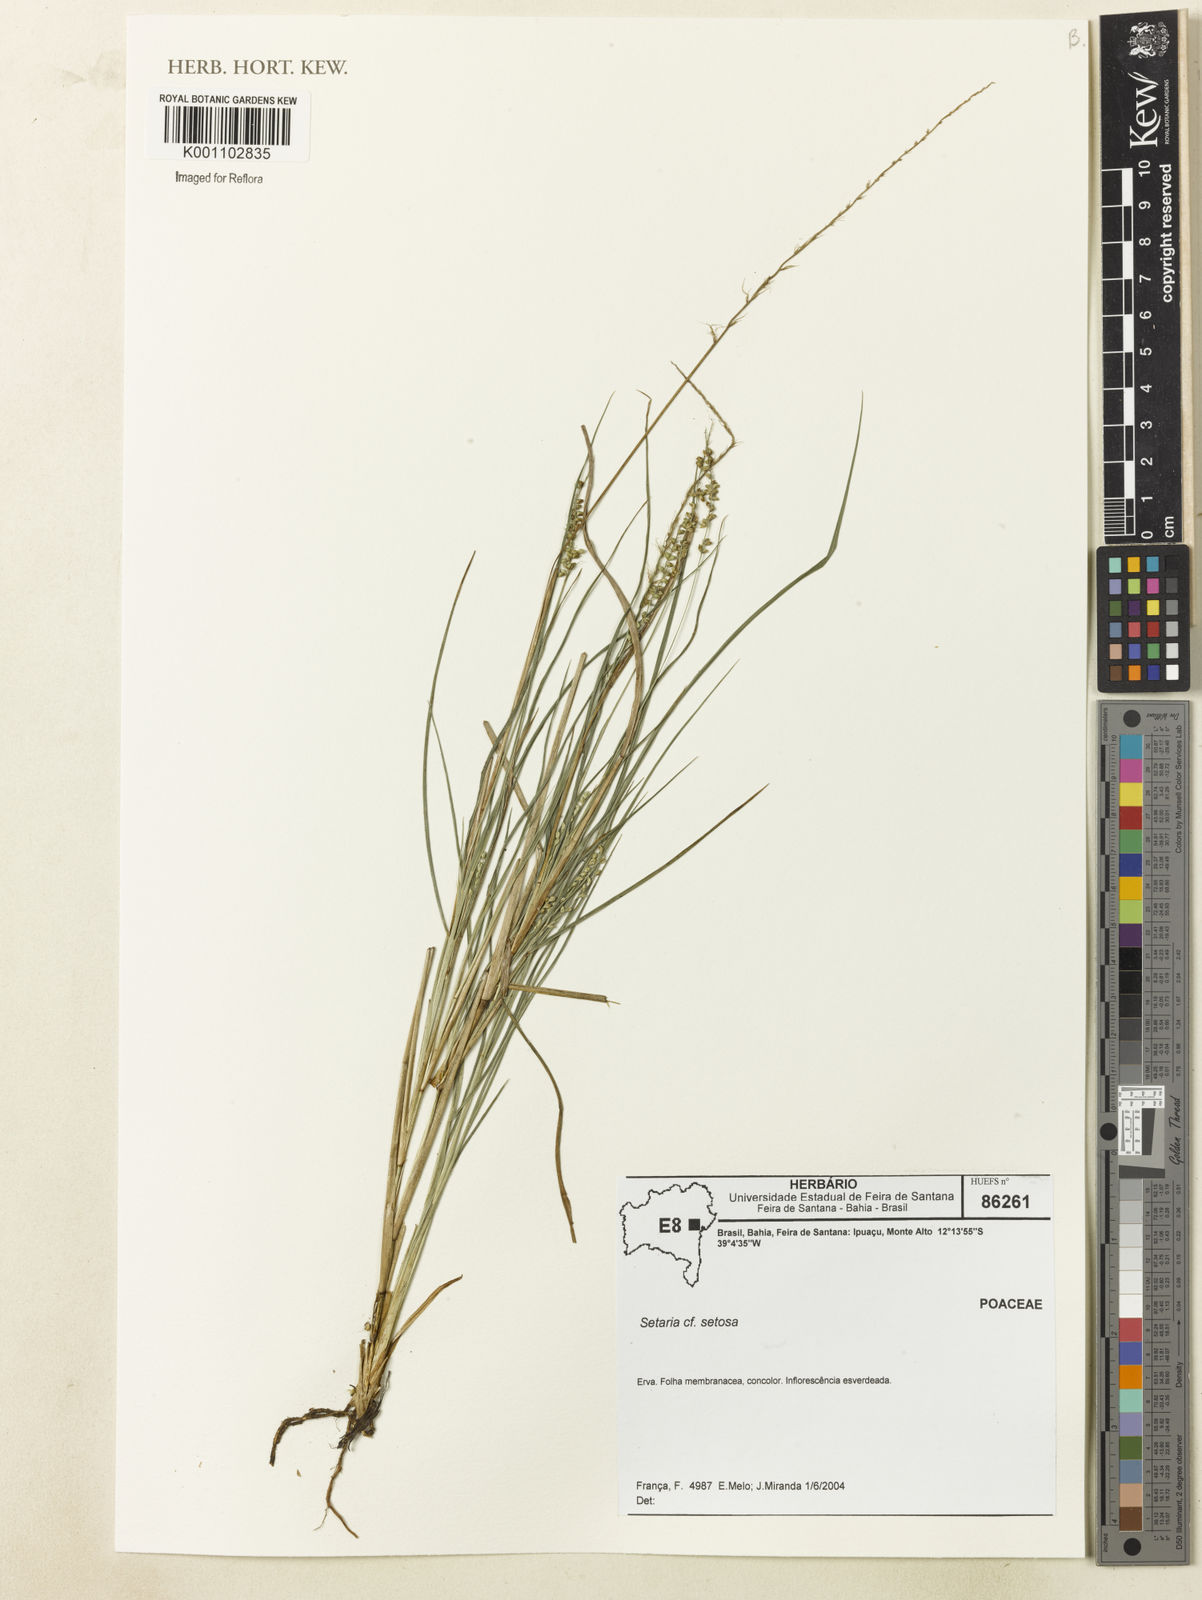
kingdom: Plantae
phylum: Tracheophyta
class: Liliopsida
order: Poales
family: Poaceae
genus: Setaria
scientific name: Setaria setosa
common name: West indies bristle grass
